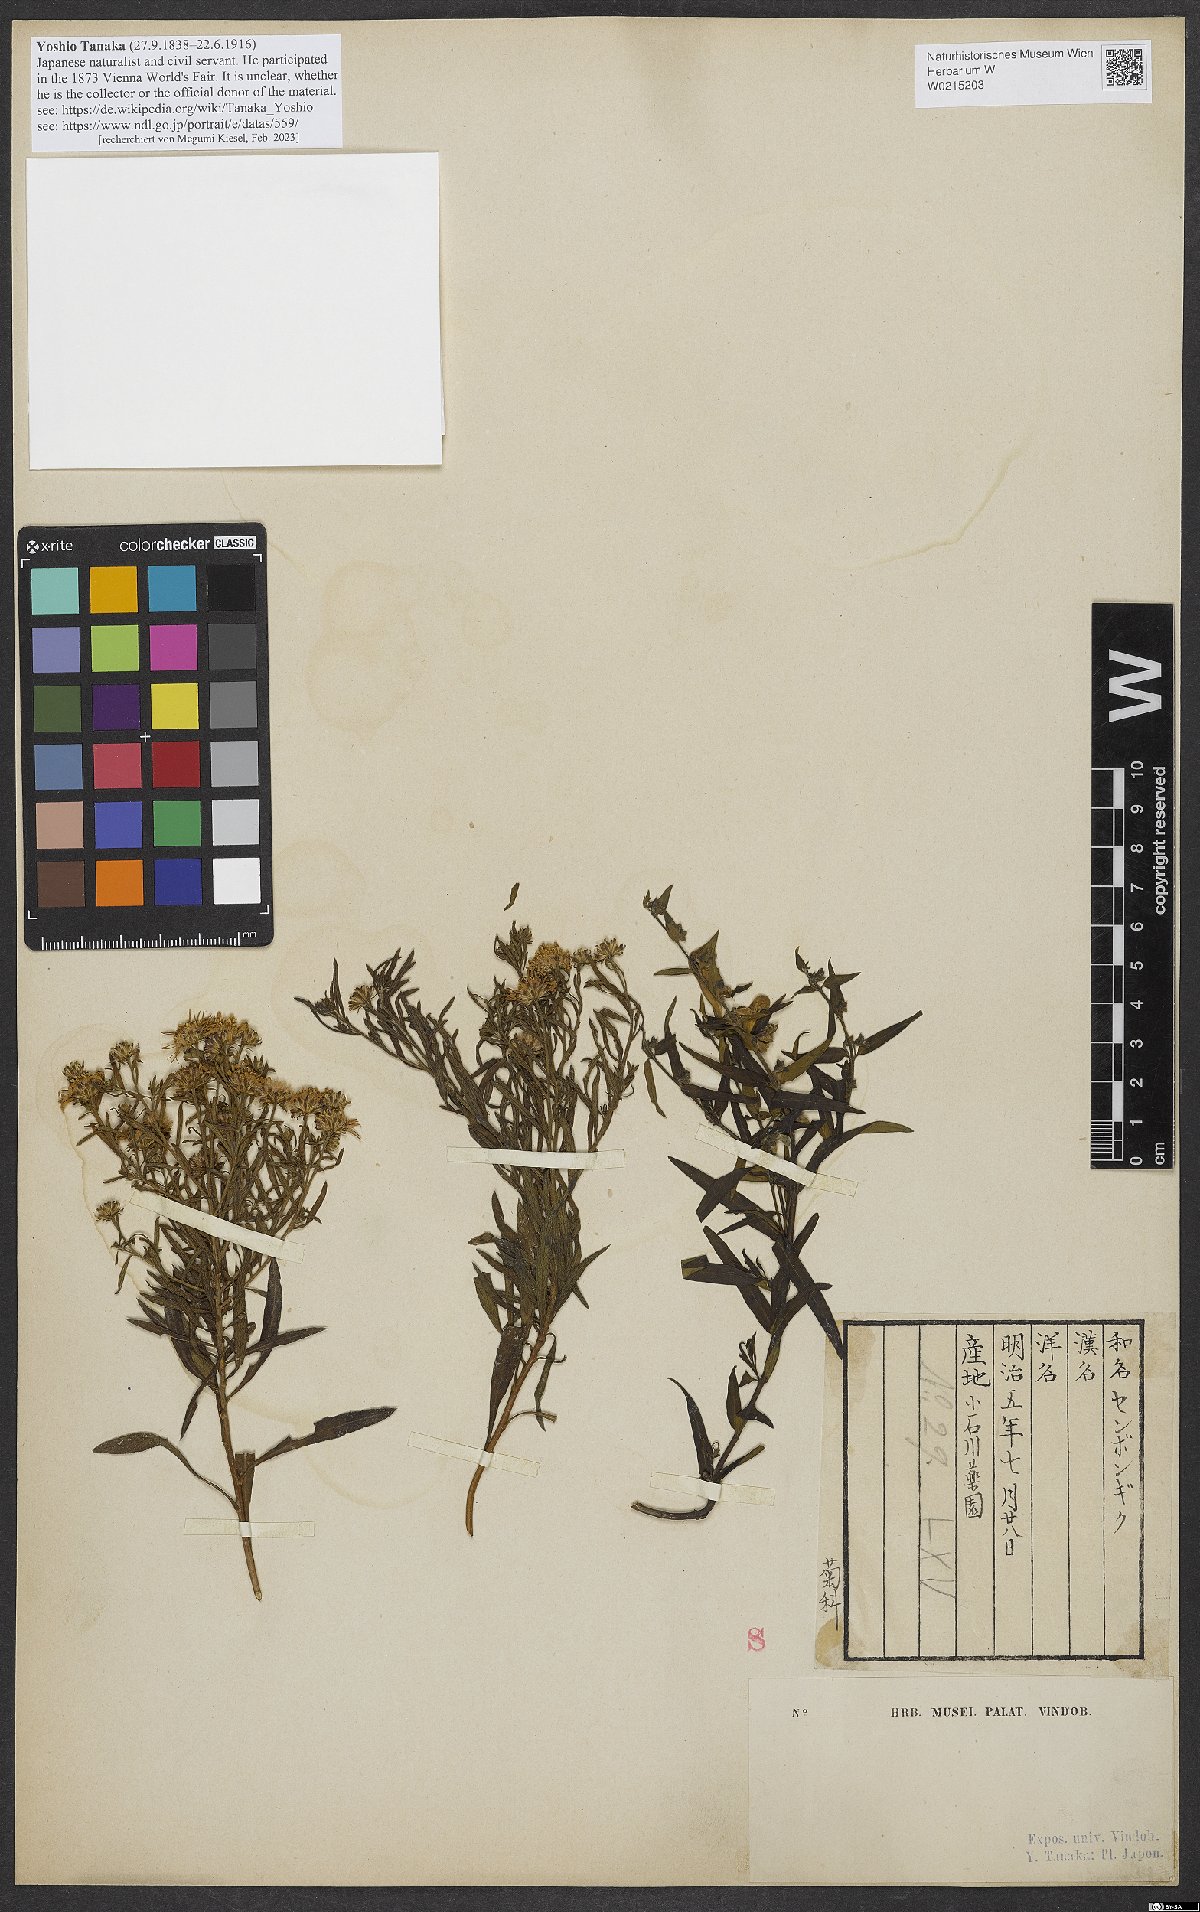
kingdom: Plantae
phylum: Tracheophyta
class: Magnoliopsida
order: Asterales
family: Asteraceae
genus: Aster
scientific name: Aster microcephalus
